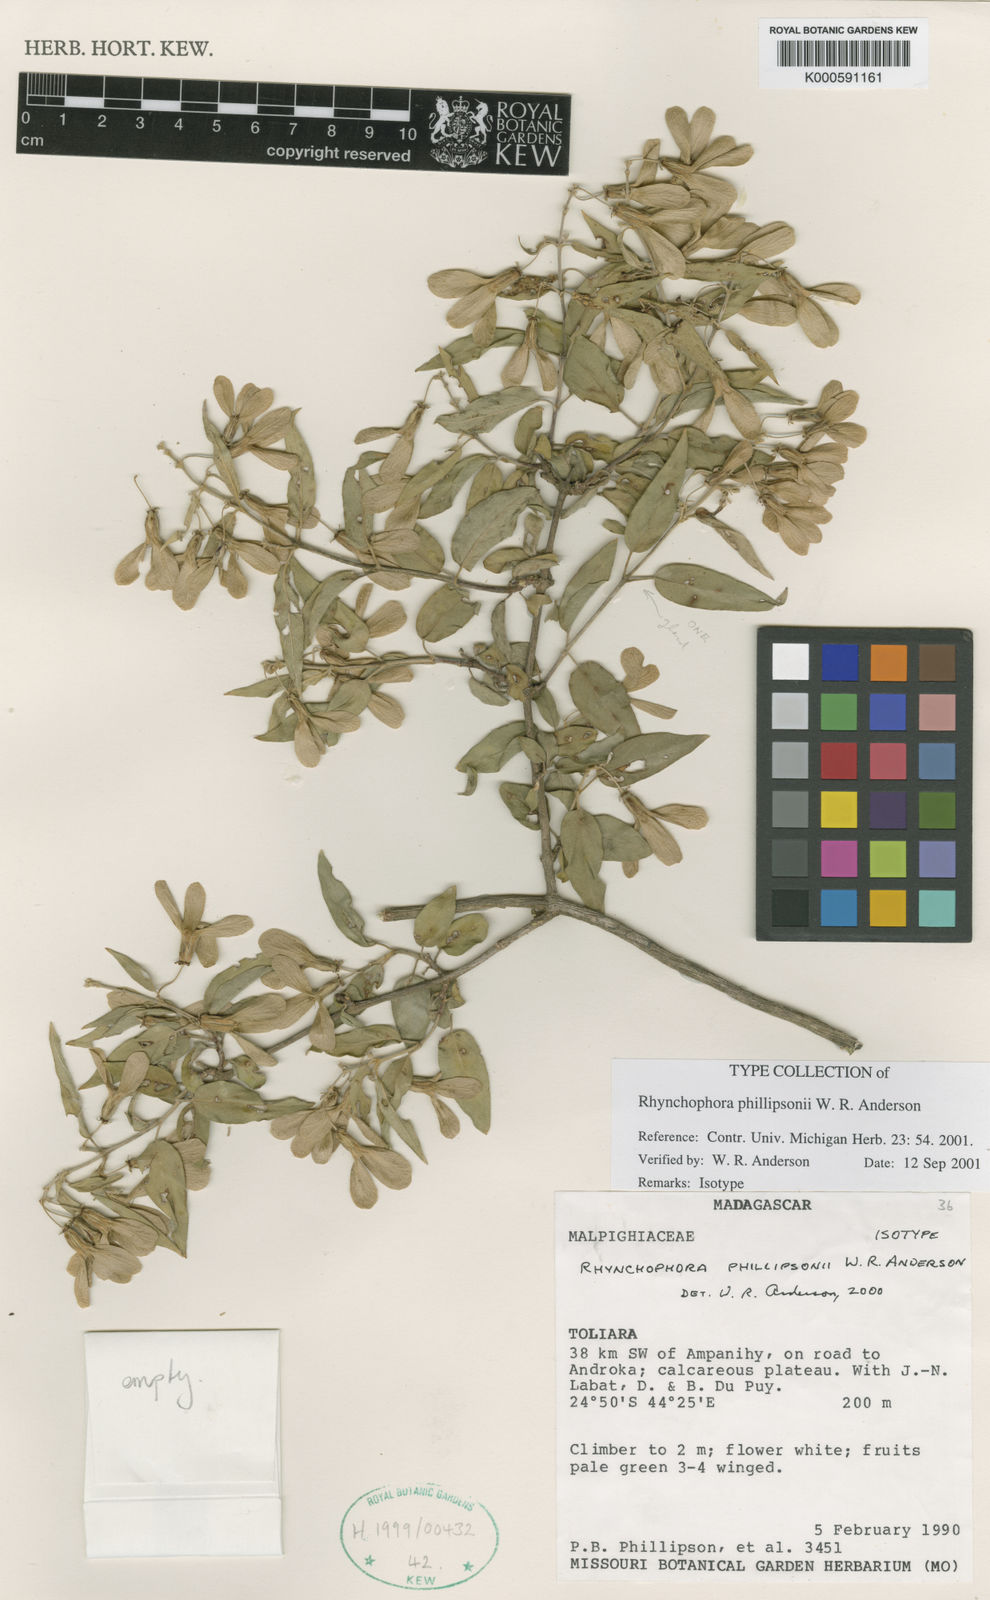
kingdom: Plantae
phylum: Tracheophyta
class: Magnoliopsida
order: Malpighiales
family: Malpighiaceae
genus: Rhynchophora
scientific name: Rhynchophora phillipsonii
